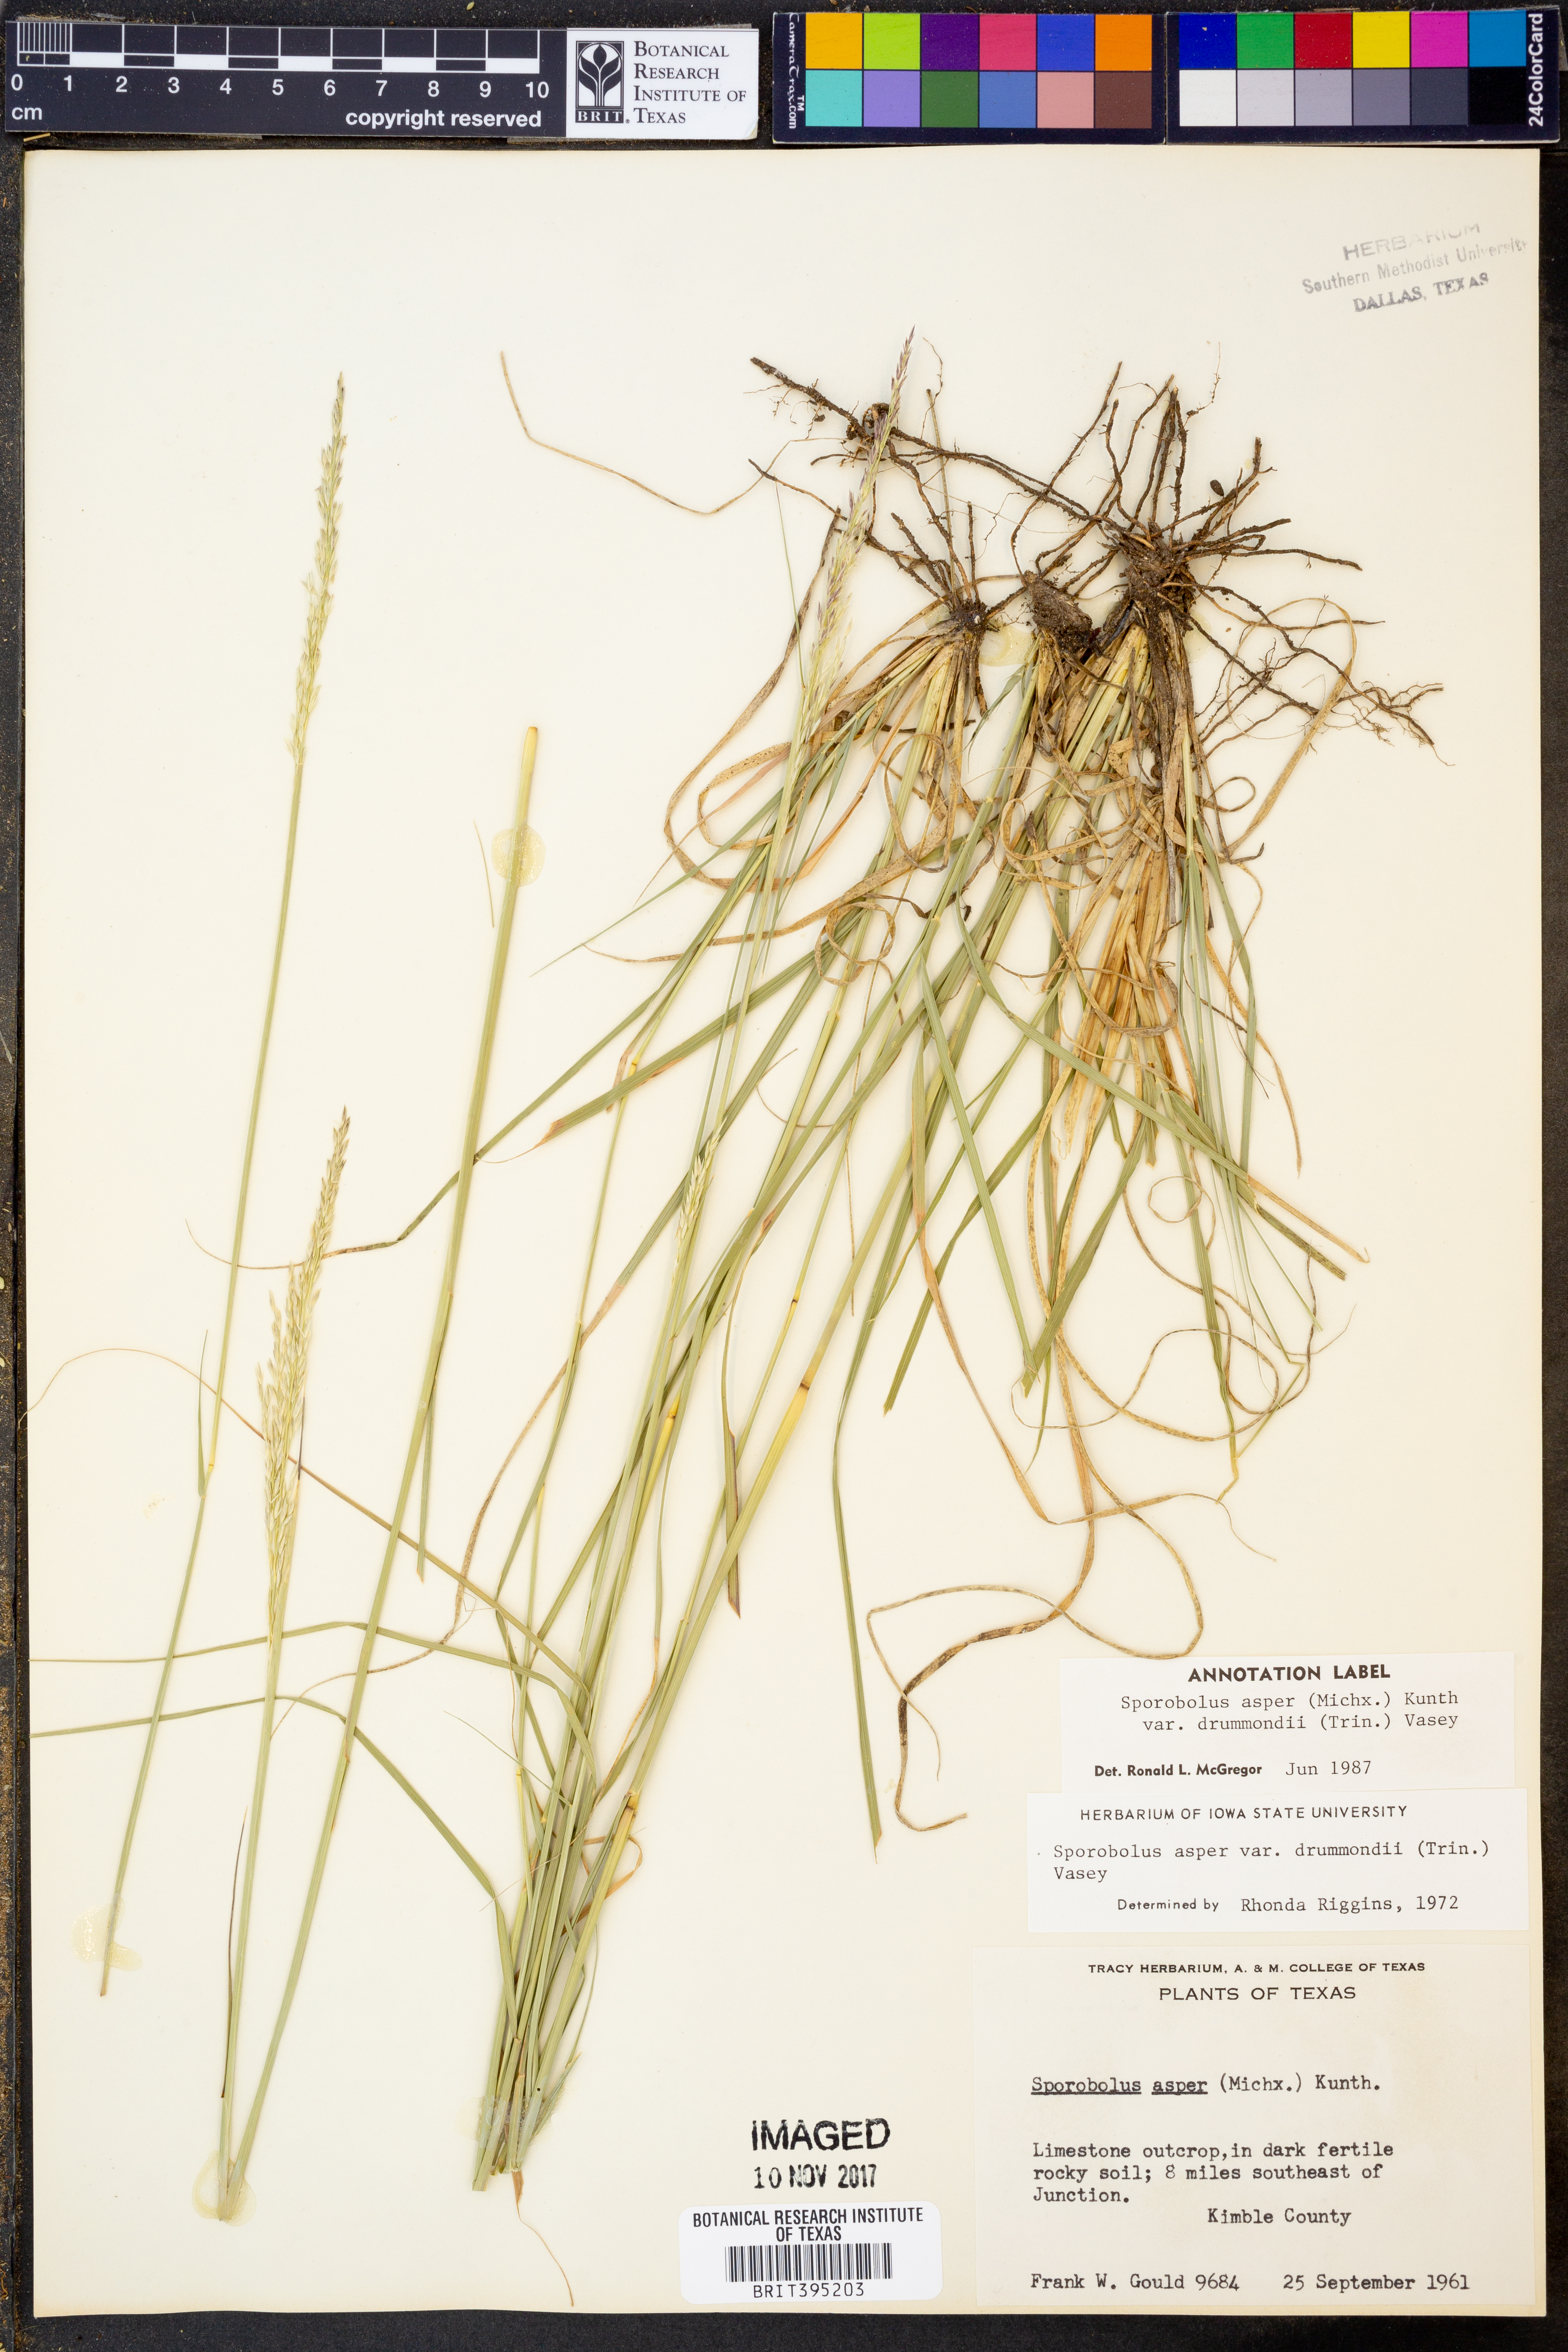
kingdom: Plantae
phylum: Tracheophyta
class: Liliopsida
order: Poales
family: Poaceae
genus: Sporobolus
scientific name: Sporobolus compositus
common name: Rough dropseed
